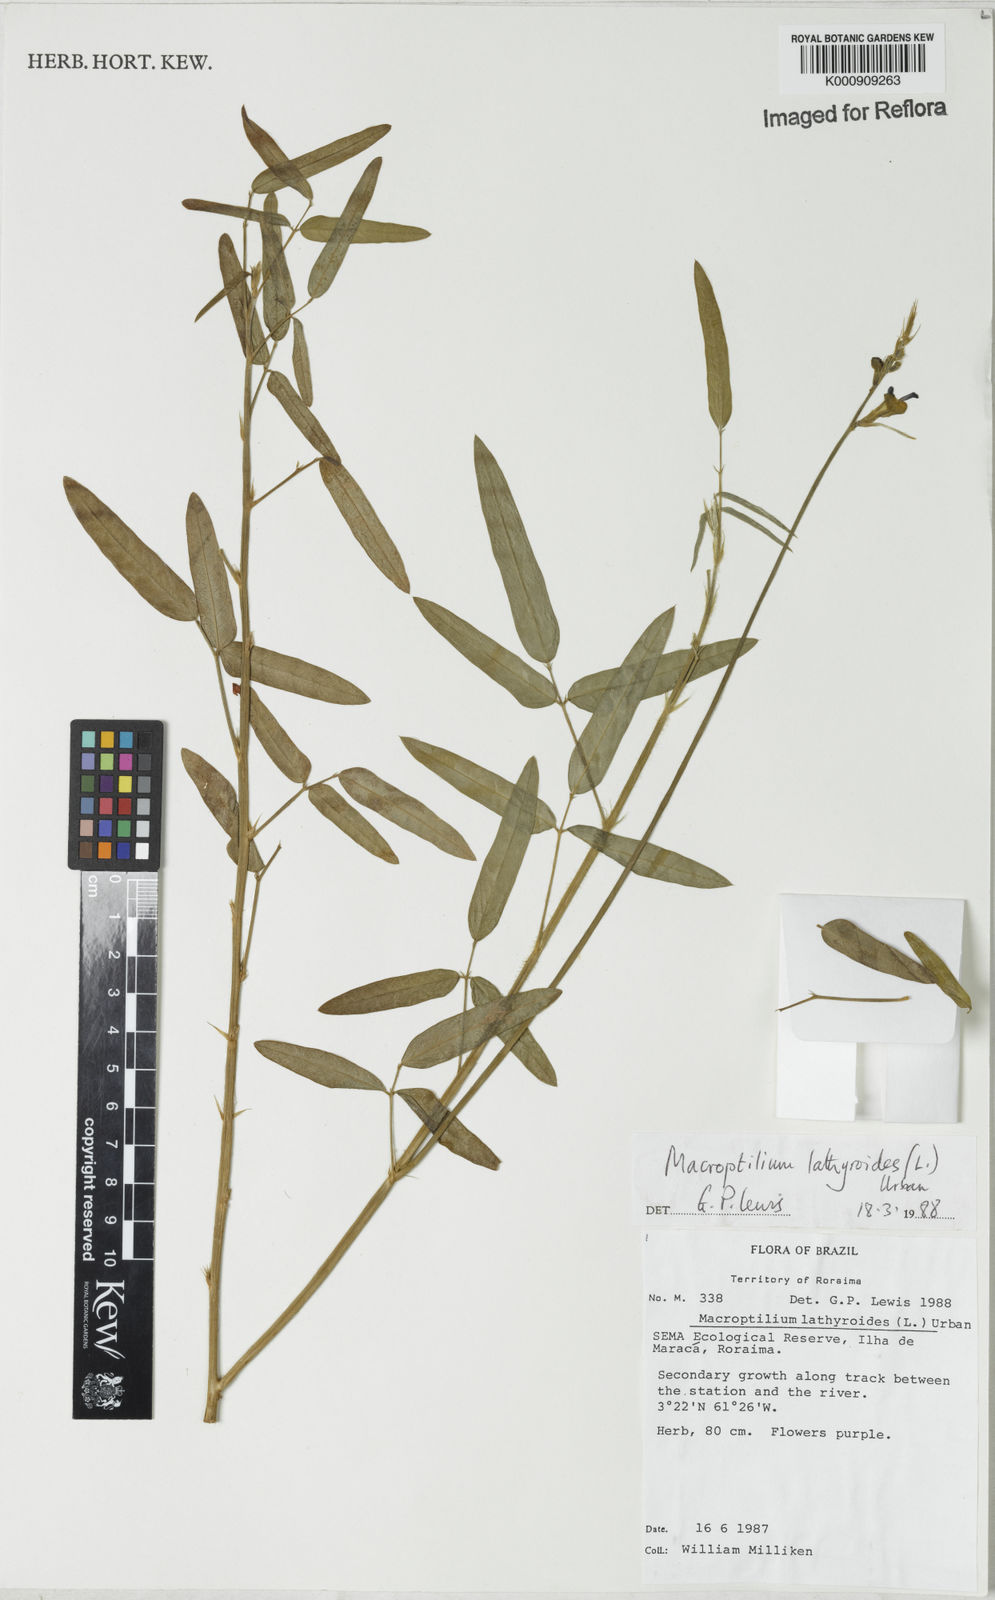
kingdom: Plantae
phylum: Tracheophyta
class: Magnoliopsida
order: Fabales
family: Fabaceae
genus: Macroptilium
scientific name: Macroptilium lathyroides
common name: Wild bushbean
